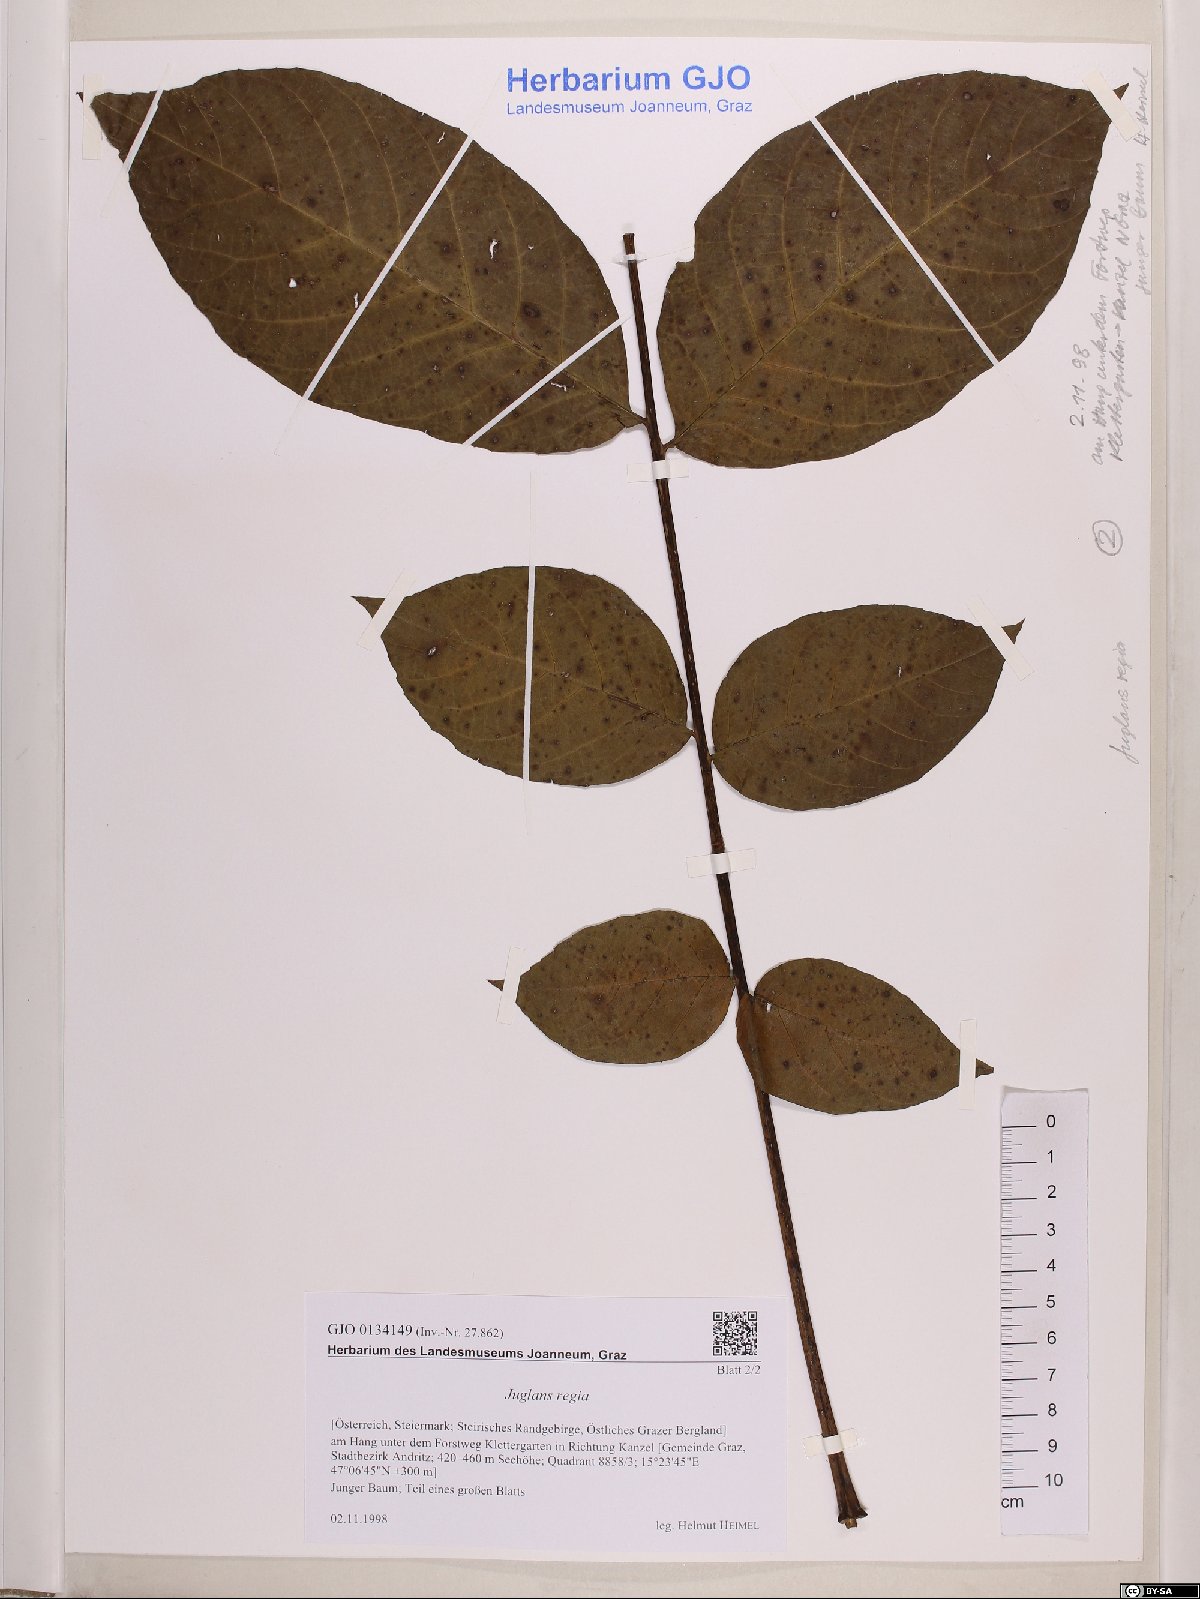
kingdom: Plantae
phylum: Tracheophyta
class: Magnoliopsida
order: Fagales
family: Juglandaceae
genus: Juglans
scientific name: Juglans regia
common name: Walnut
